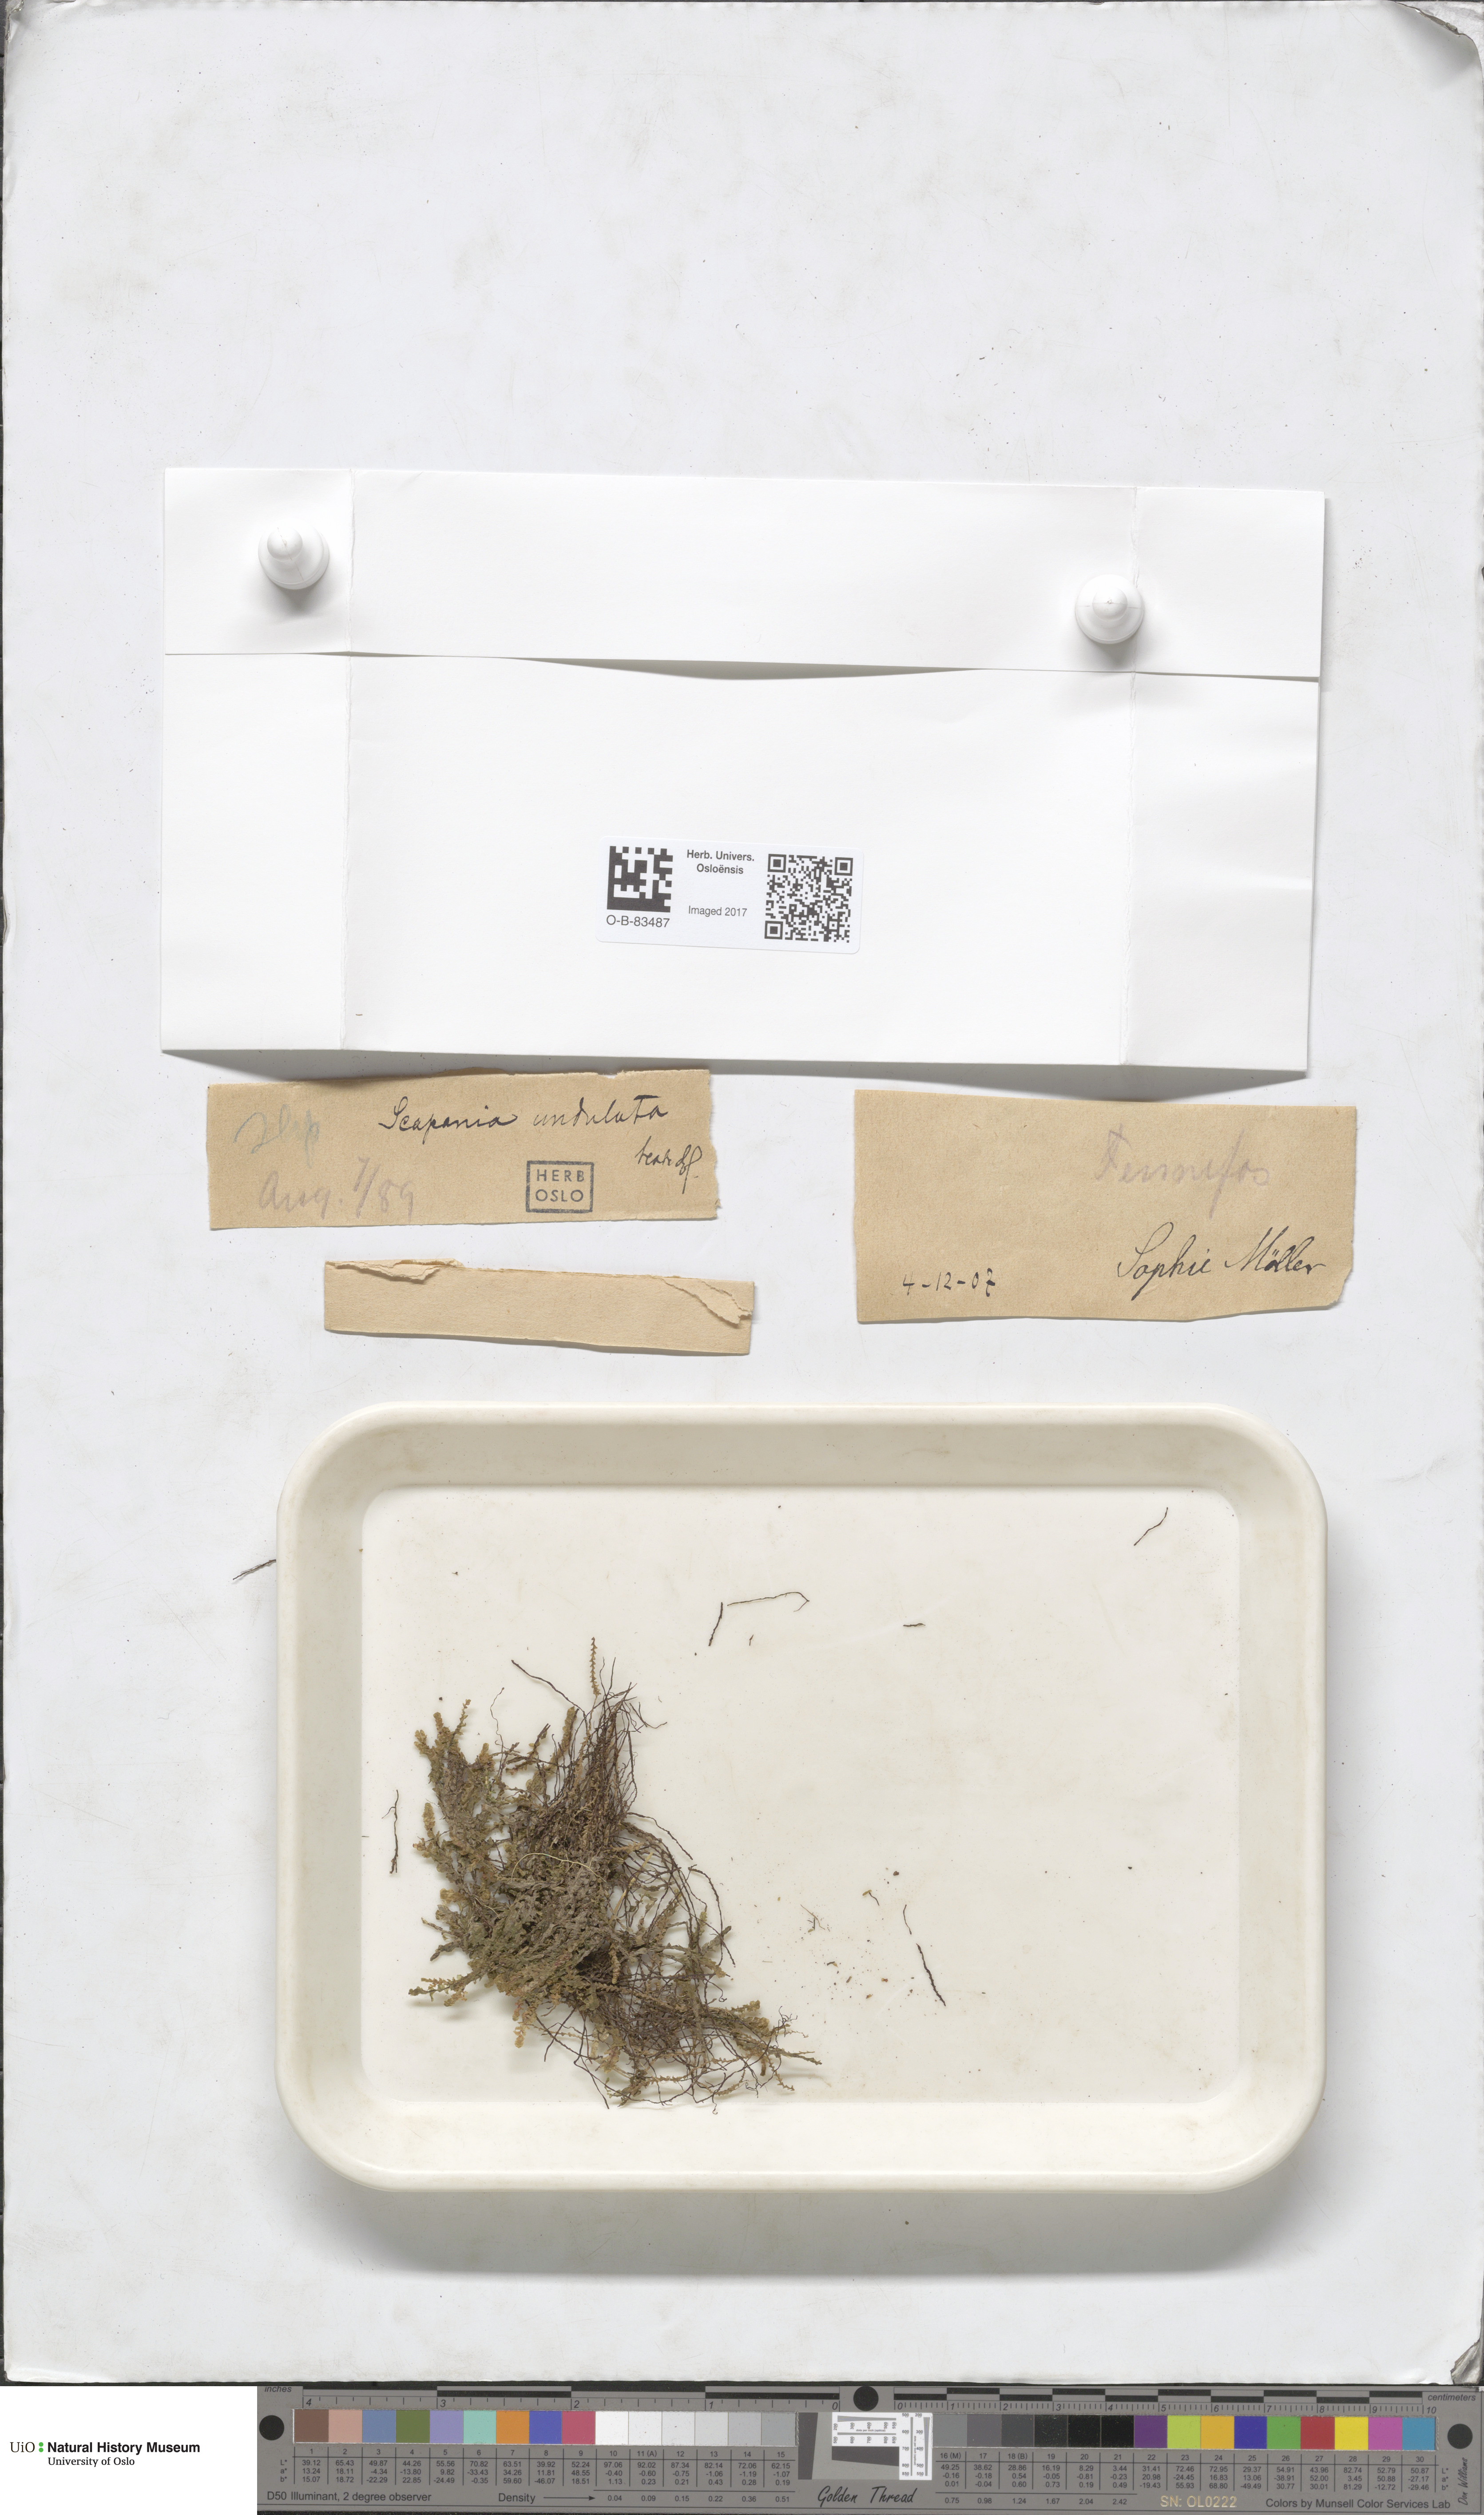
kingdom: Plantae
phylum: Marchantiophyta
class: Jungermanniopsida
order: Jungermanniales
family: Scapaniaceae
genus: Scapania
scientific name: Scapania undulata
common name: Water earwort
